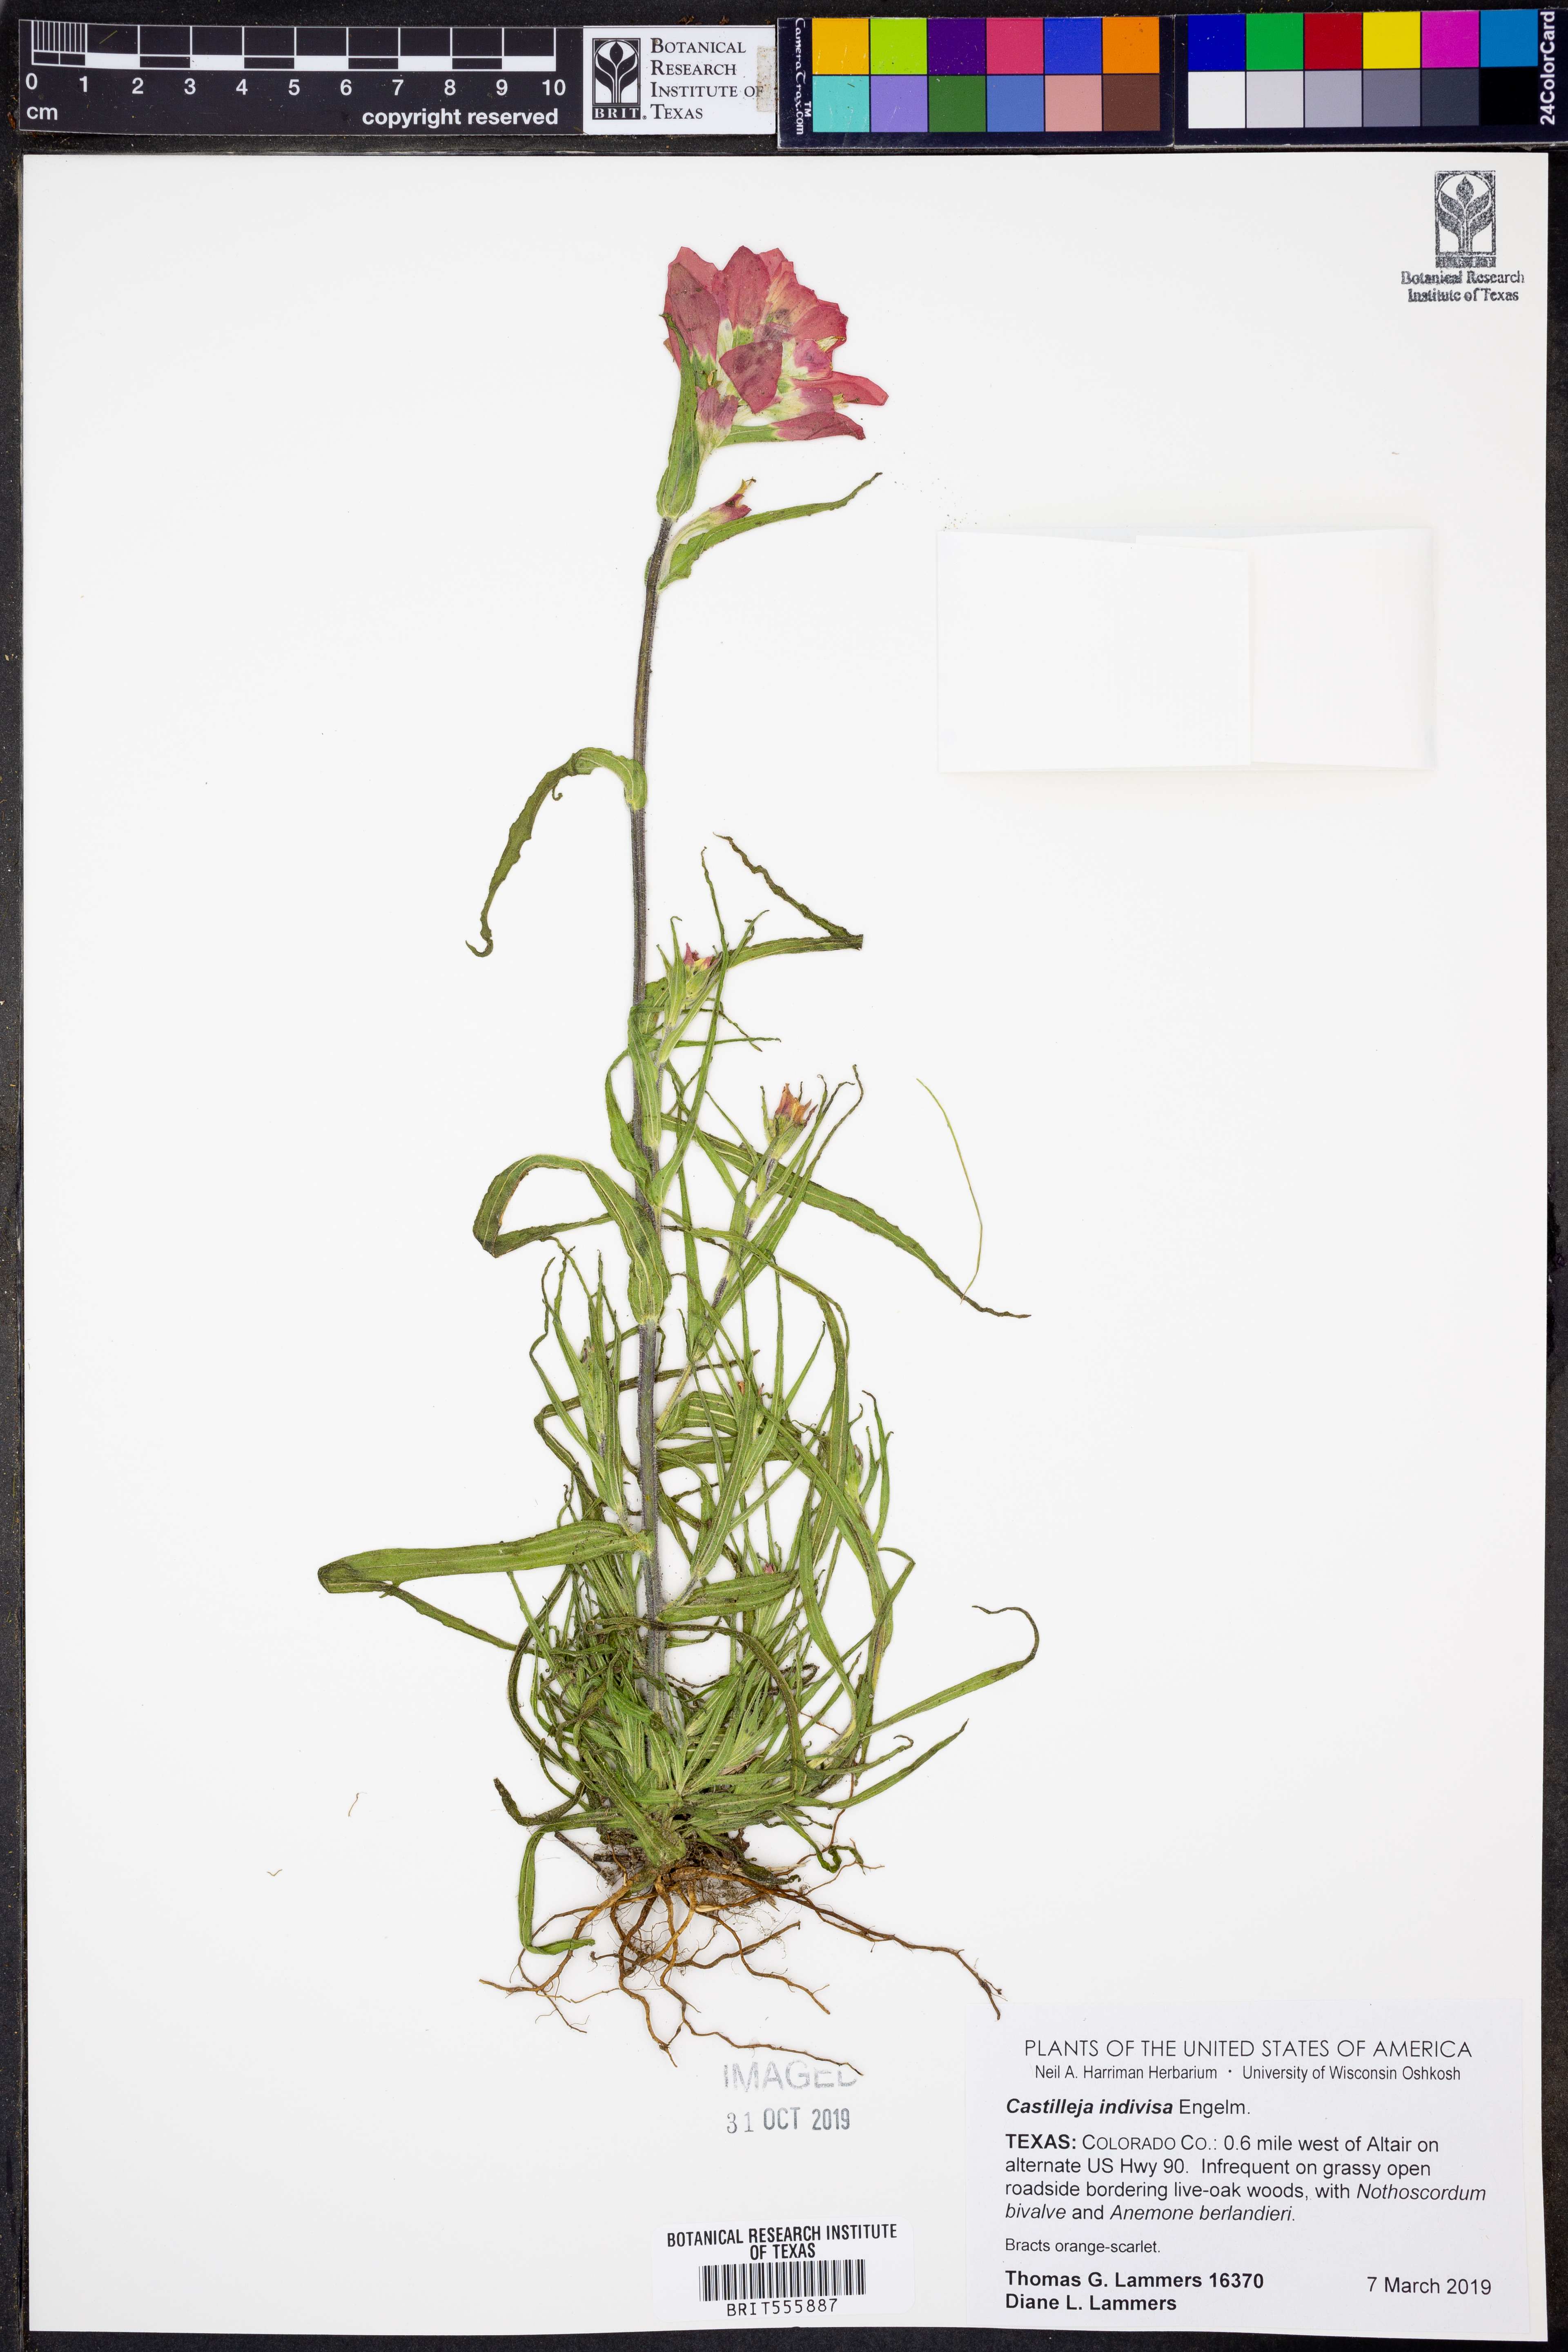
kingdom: Plantae
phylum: Tracheophyta
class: Magnoliopsida
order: Lamiales
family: Orobanchaceae
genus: Castilleja
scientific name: Castilleja indivisa
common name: Texas paintbrush
